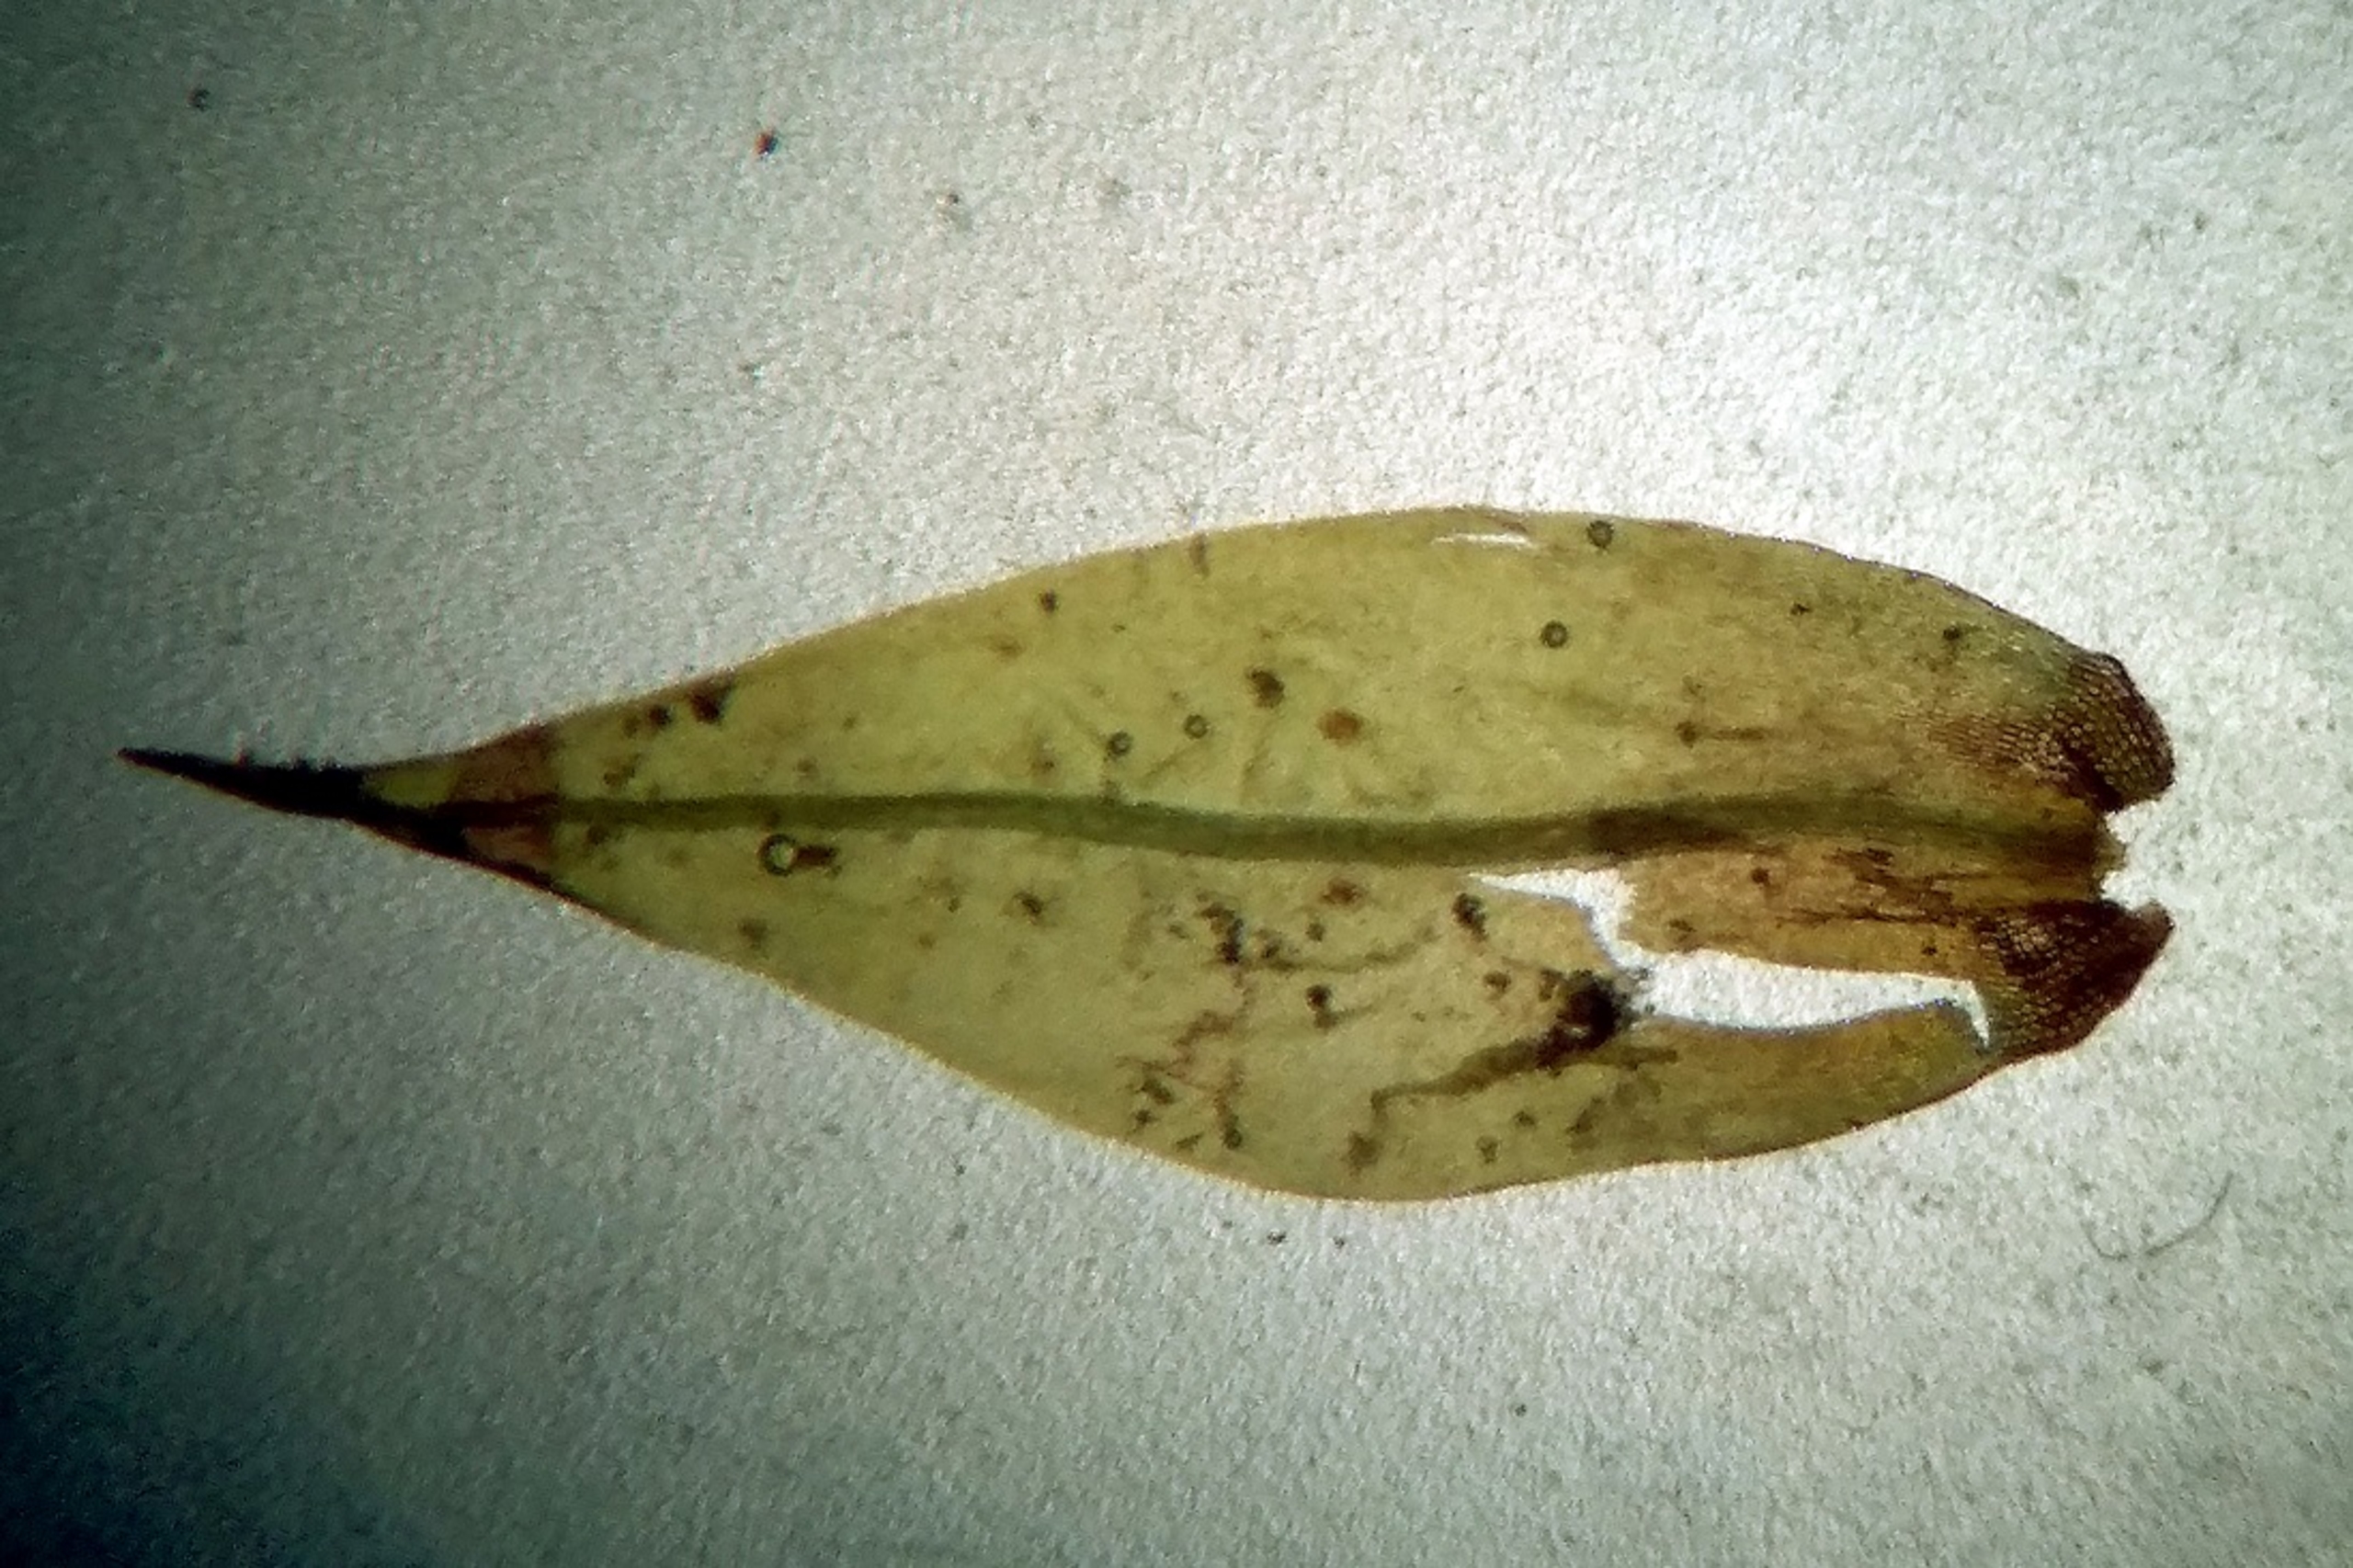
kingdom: Plantae
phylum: Bryophyta
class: Bryopsida
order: Dicranales
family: Dicranaceae
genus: Dicranum
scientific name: Dicranum spurium
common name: Hede-kløvtand
